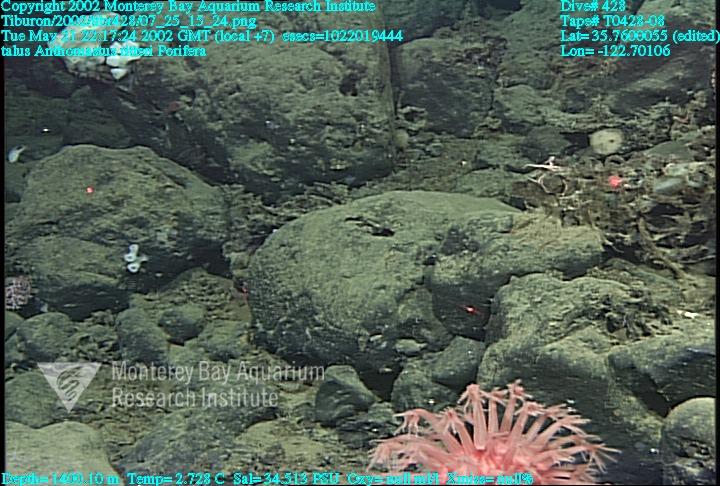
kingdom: Animalia
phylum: Porifera
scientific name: Porifera
